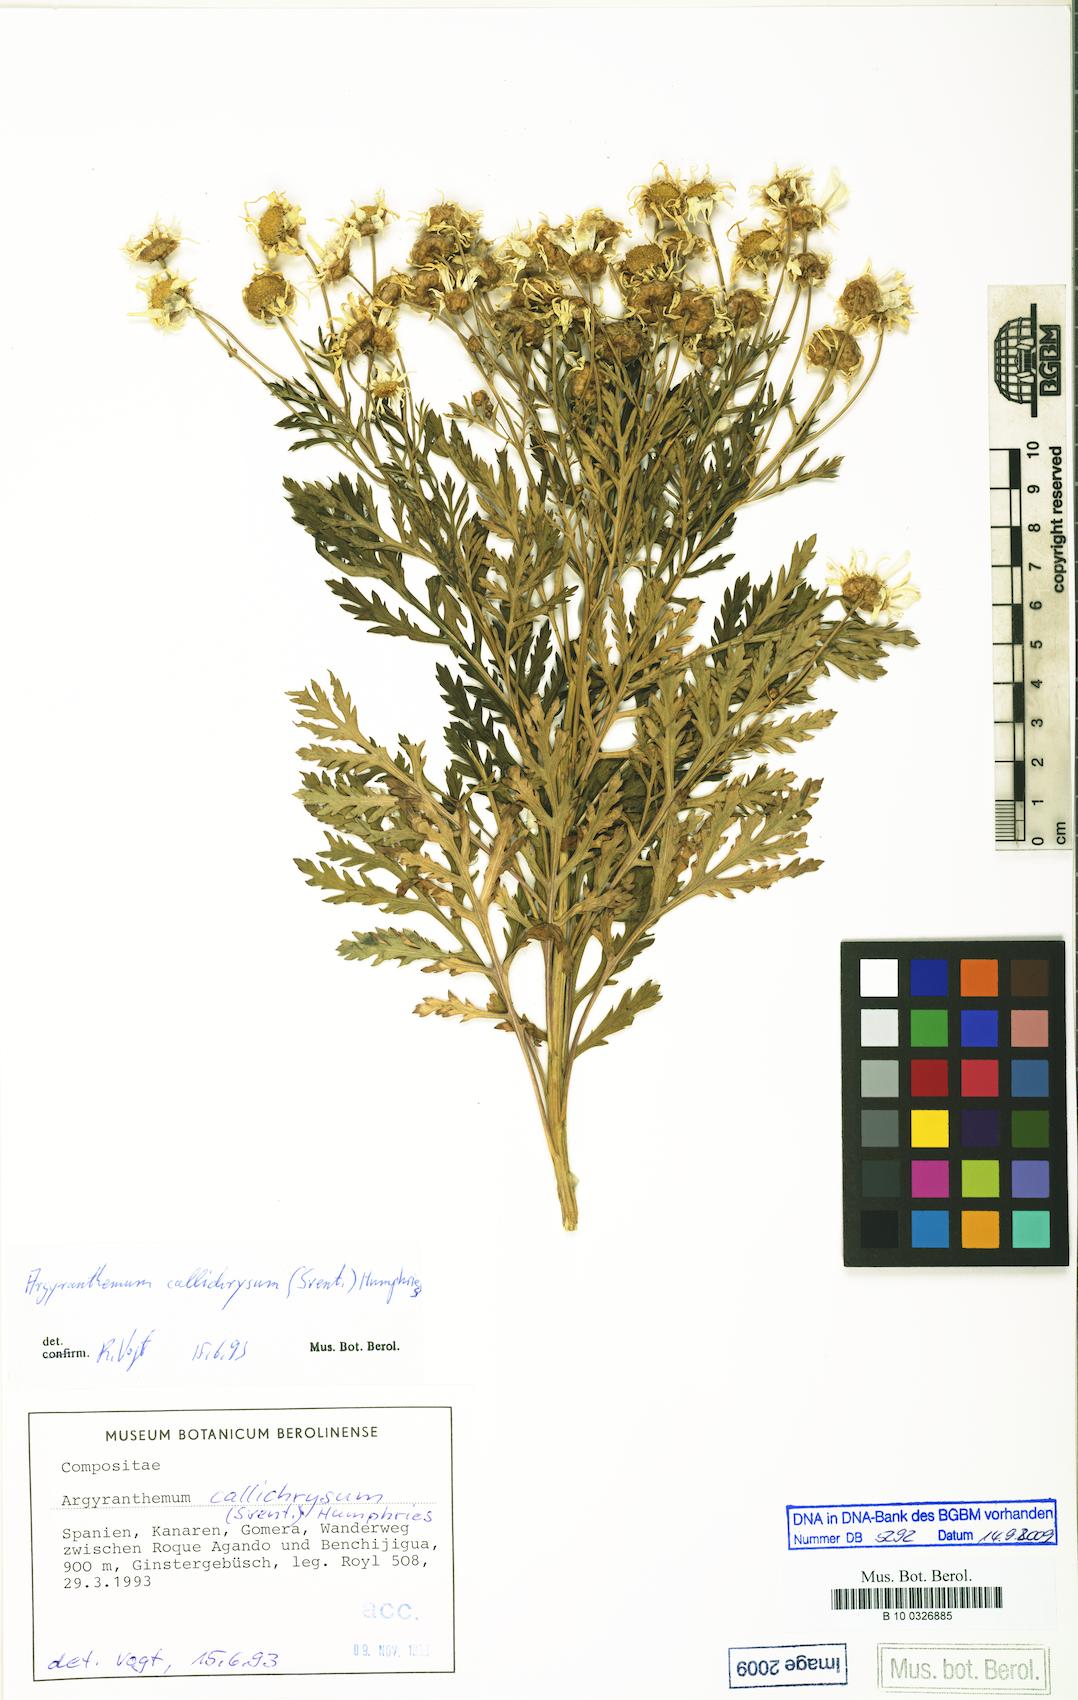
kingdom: Plantae
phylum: Tracheophyta
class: Magnoliopsida
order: Asterales
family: Asteraceae
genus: Argyranthemum
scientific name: Argyranthemum callichrysum
